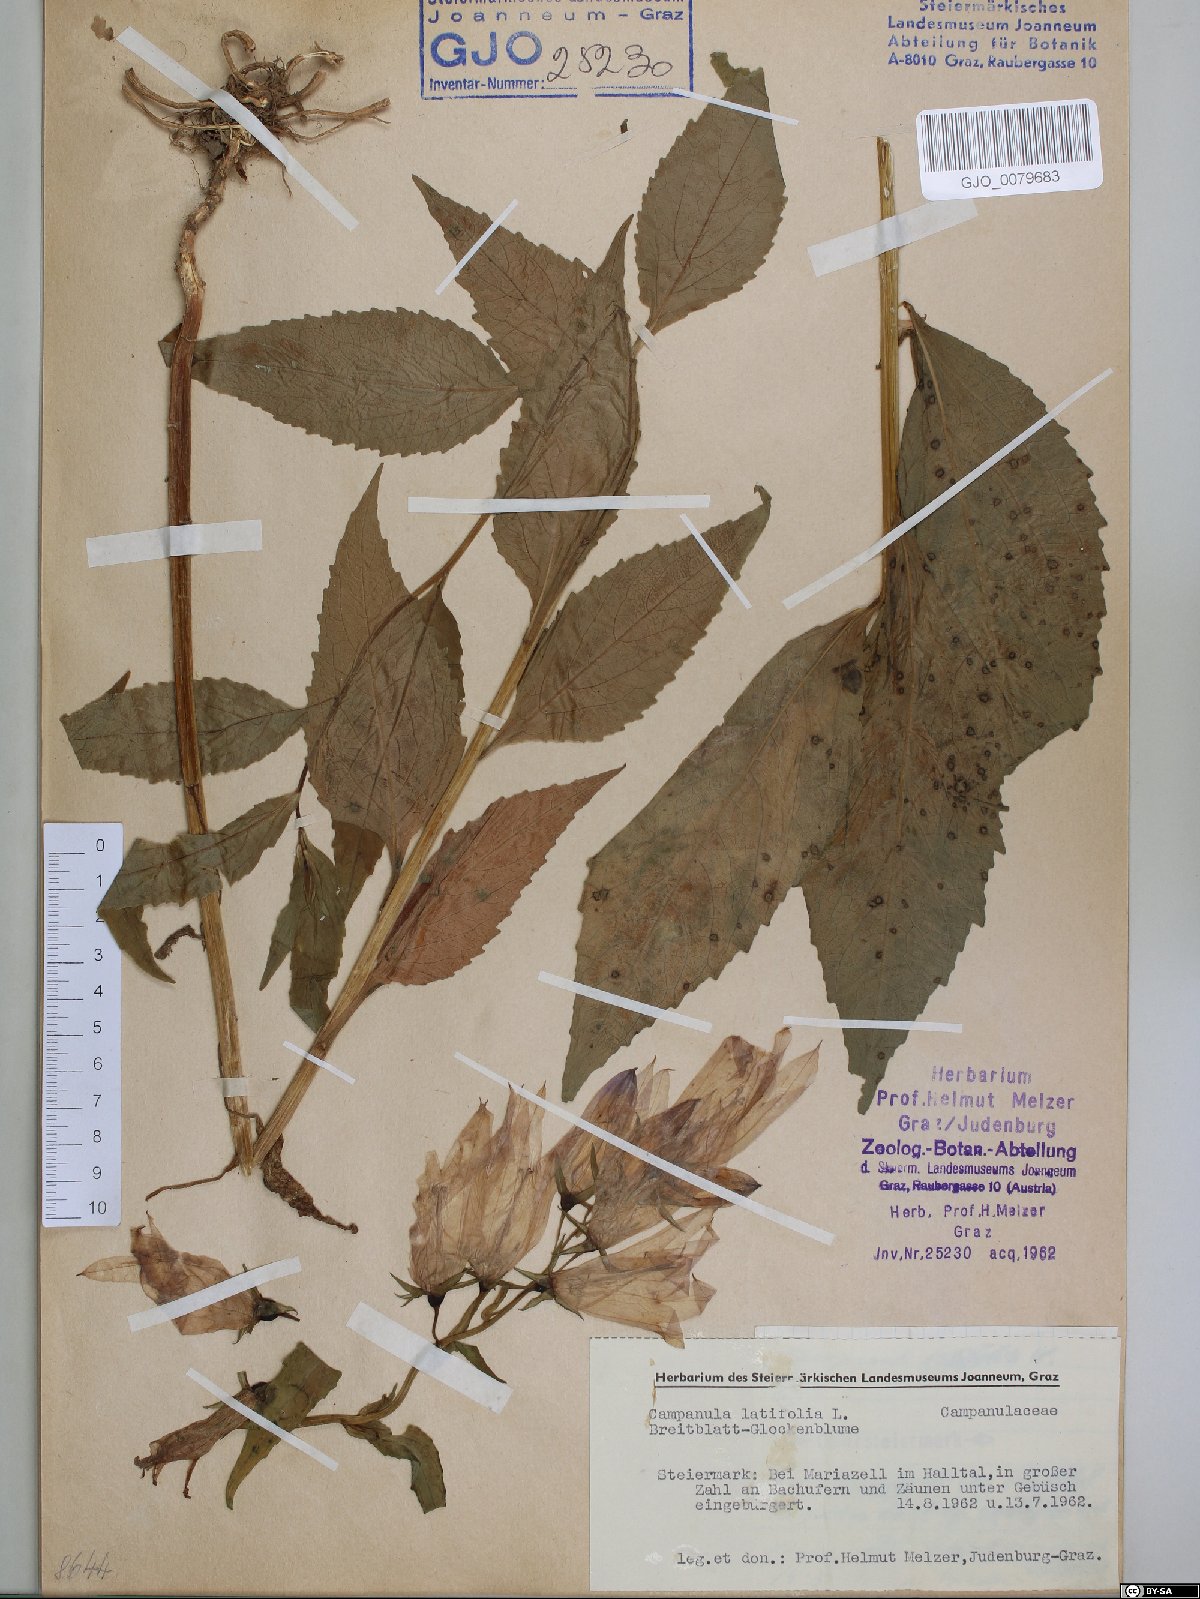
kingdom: Plantae
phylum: Tracheophyta
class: Magnoliopsida
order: Asterales
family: Campanulaceae
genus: Campanula
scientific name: Campanula latifolia
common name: Giant bellflower
